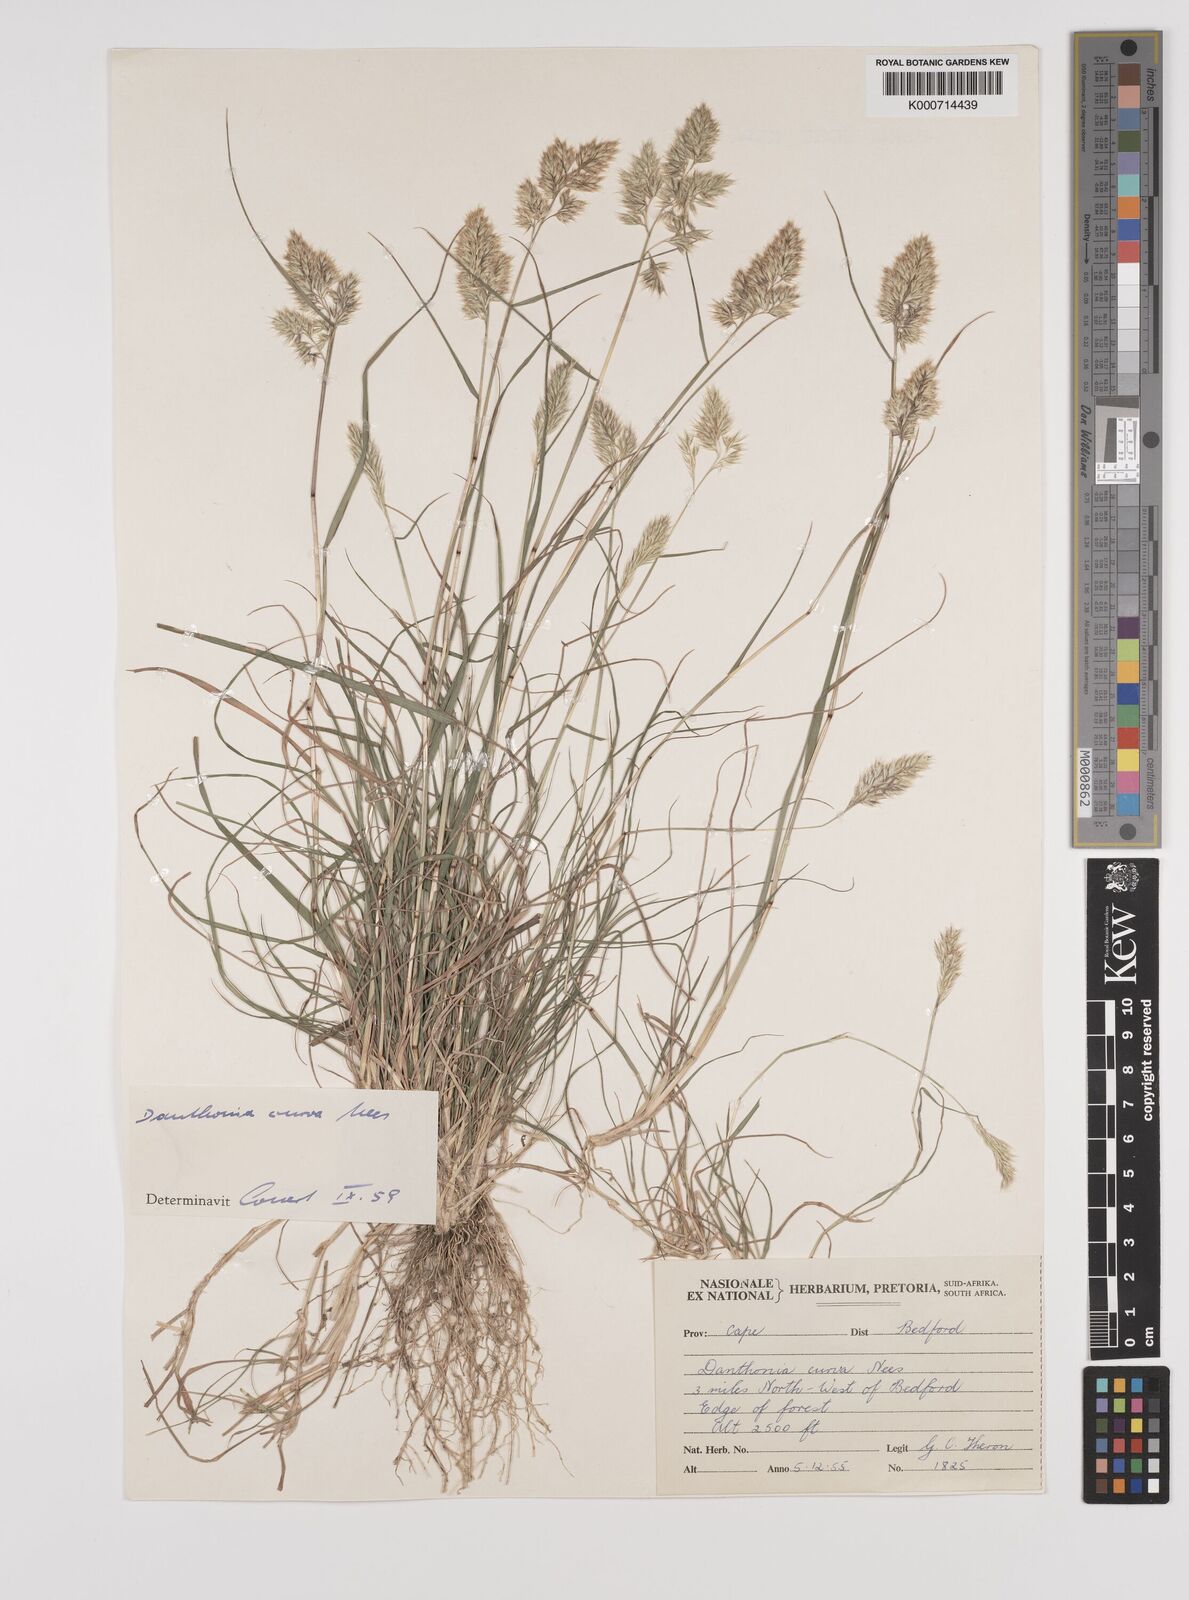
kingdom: Plantae
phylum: Tracheophyta
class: Liliopsida
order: Poales
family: Poaceae
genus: Rytidosperma
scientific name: Rytidosperma
